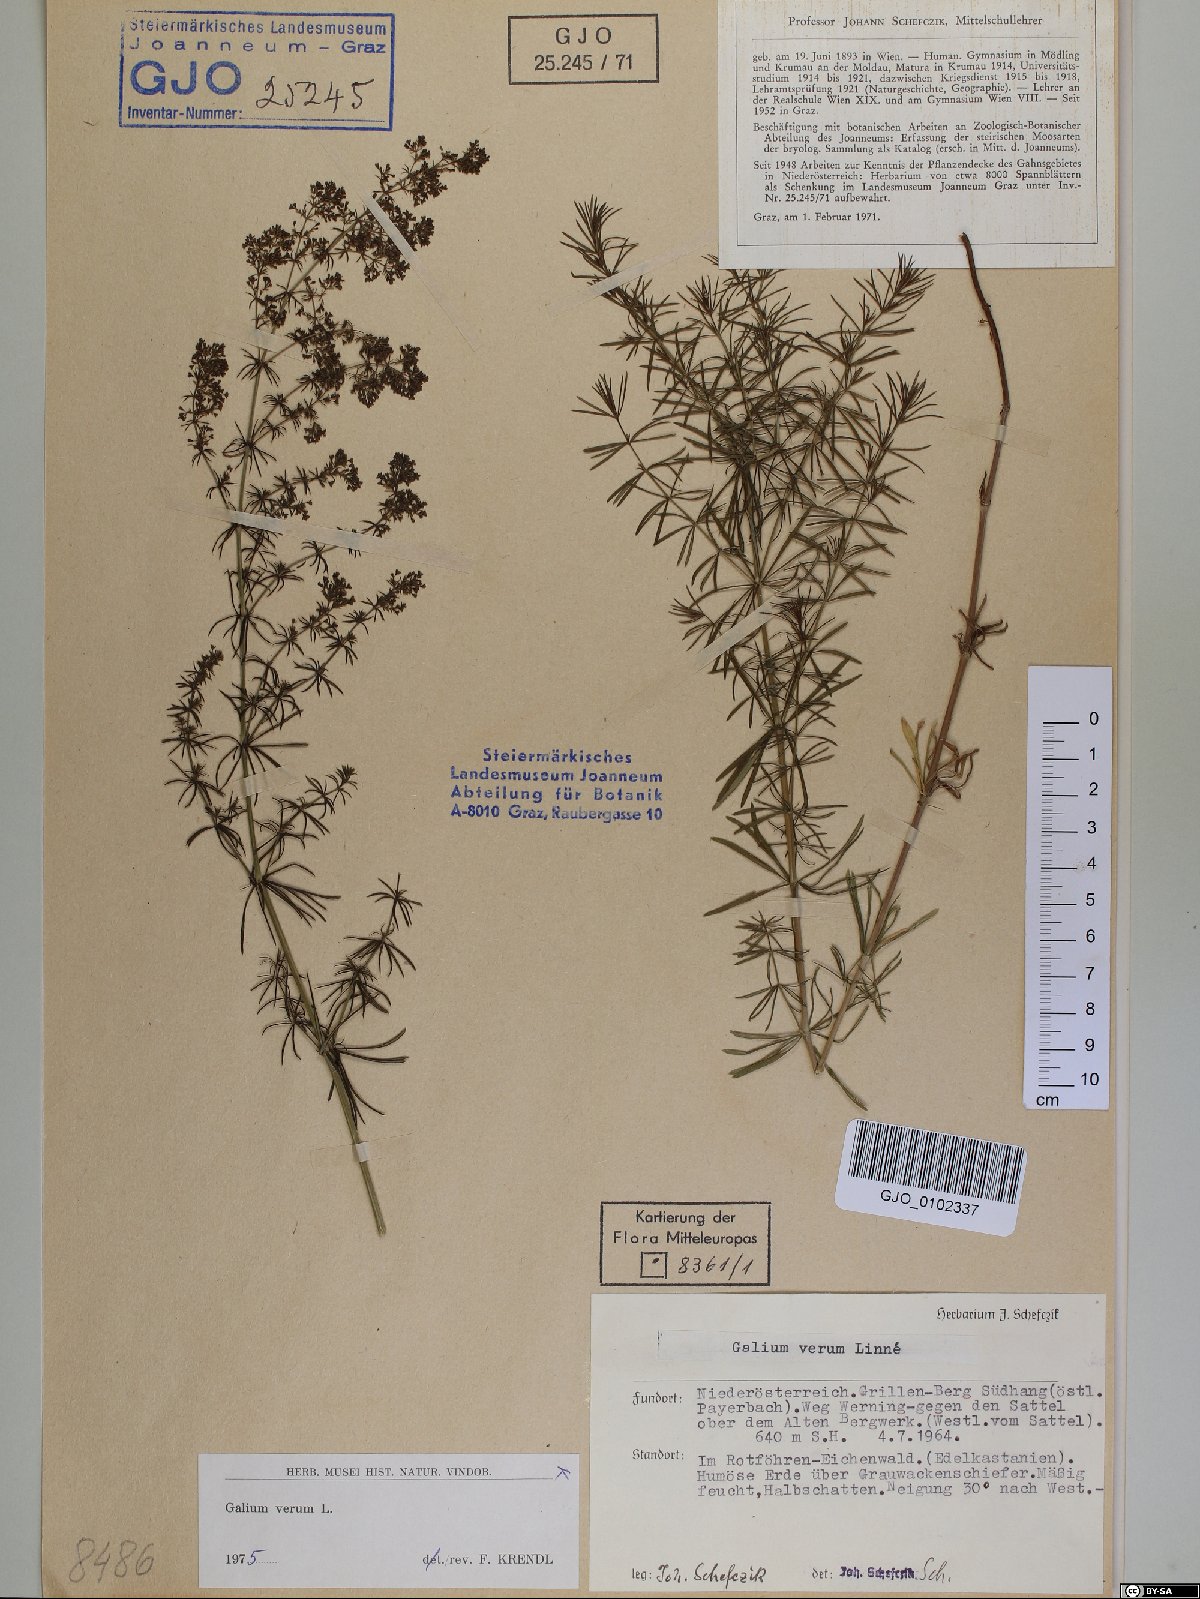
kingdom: Plantae
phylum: Tracheophyta
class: Magnoliopsida
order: Gentianales
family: Rubiaceae
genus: Galium
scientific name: Galium verum
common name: Lady's bedstraw
